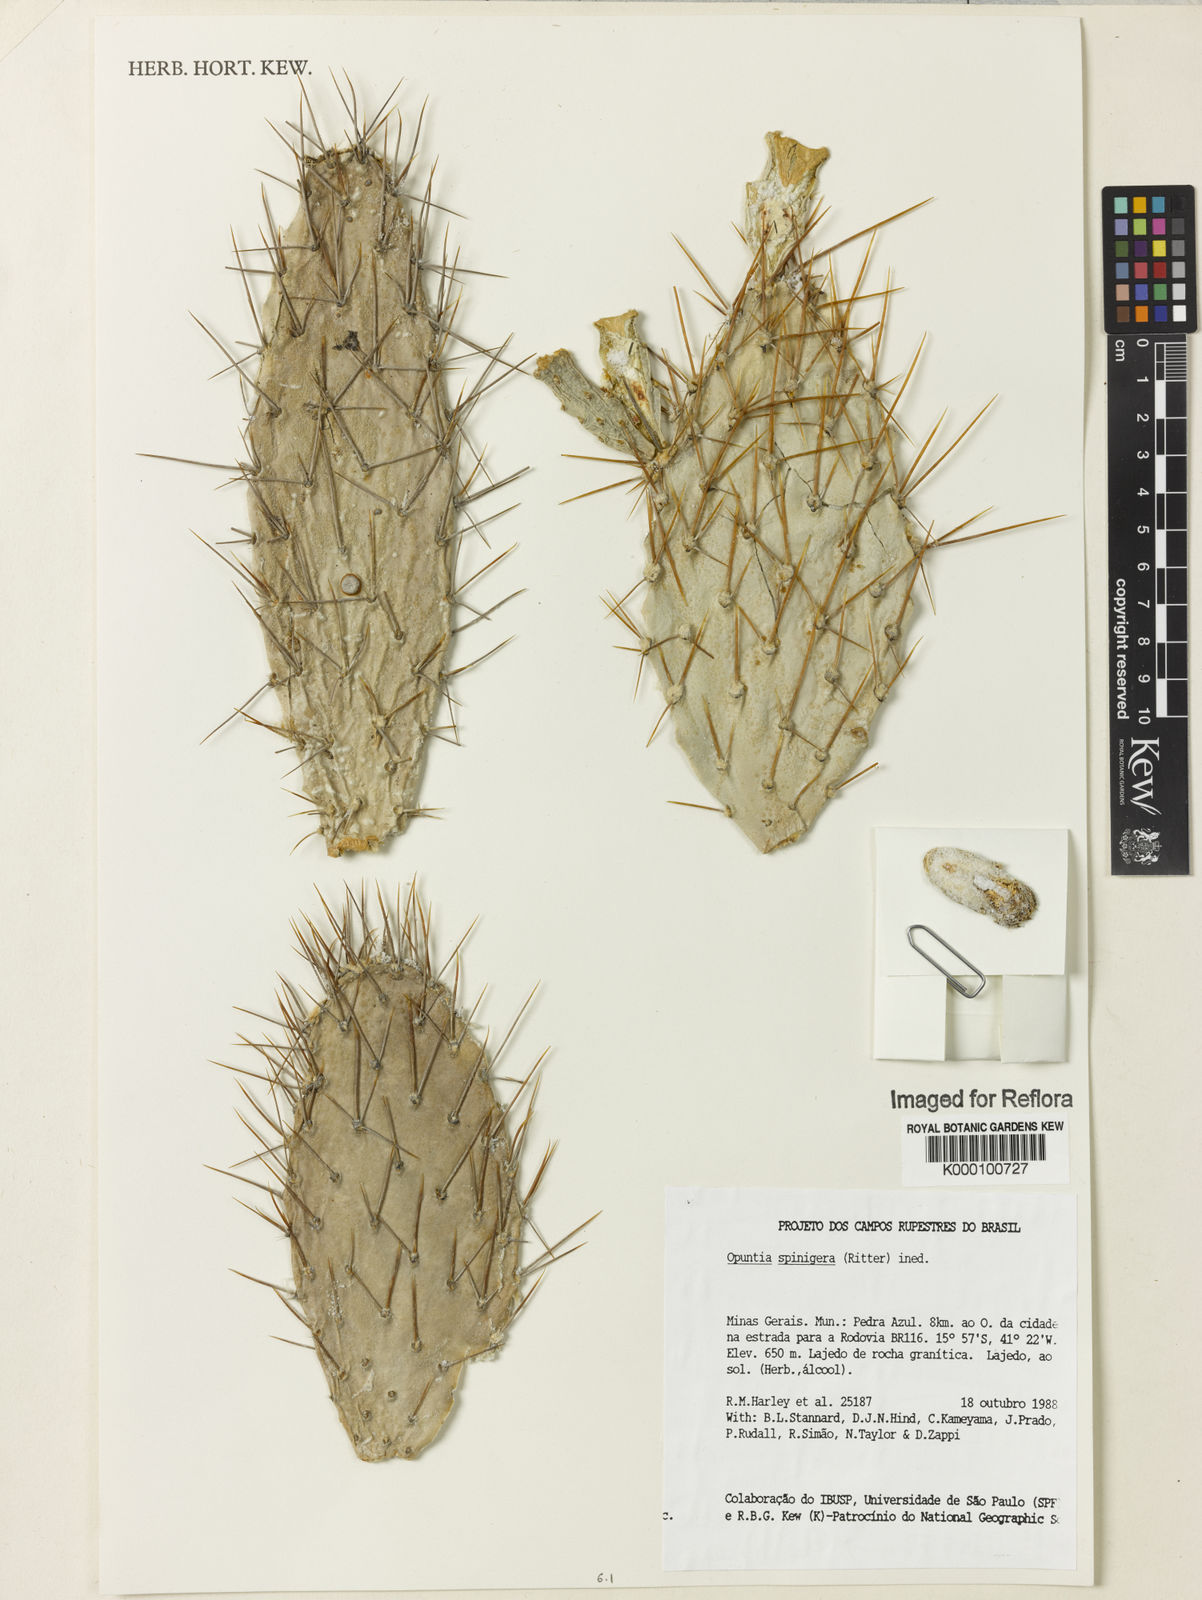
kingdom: Plantae
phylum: Tracheophyta
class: Magnoliopsida
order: Caryophyllales
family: Cactaceae
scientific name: Cactaceae
